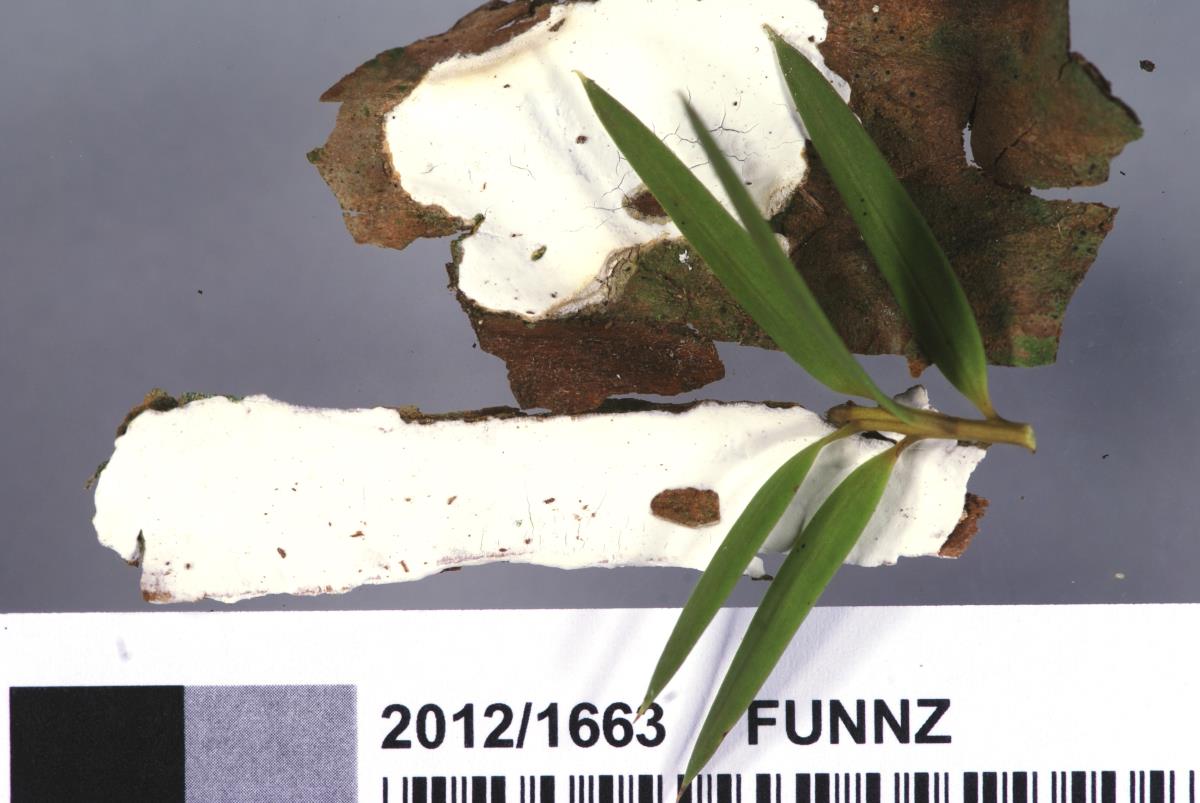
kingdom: Fungi
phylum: Basidiomycota
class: Agaricomycetes
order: Agaricales
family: Mycenaceae
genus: Mycena
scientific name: Mycena subdebilis
